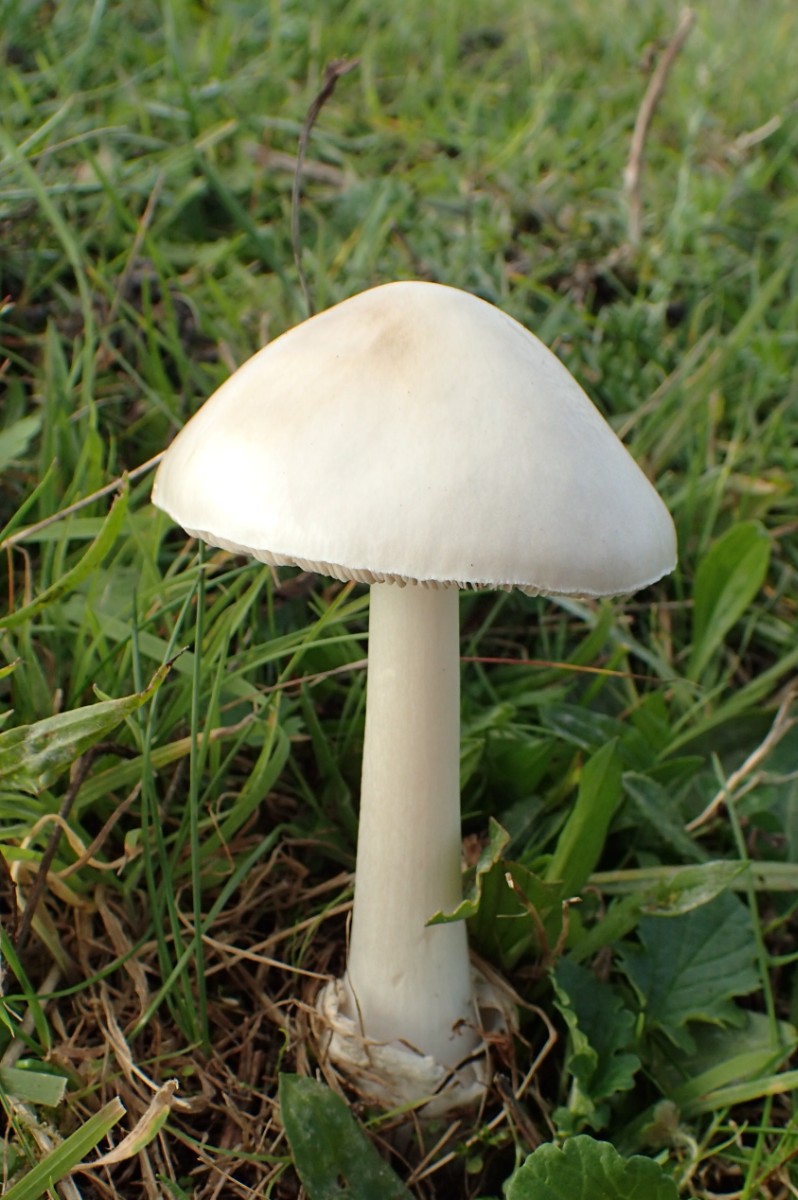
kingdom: Fungi
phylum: Basidiomycota
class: Agaricomycetes
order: Agaricales
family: Pluteaceae
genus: Volvopluteus
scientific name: Volvopluteus gloiocephalus
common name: høj posesvamp
